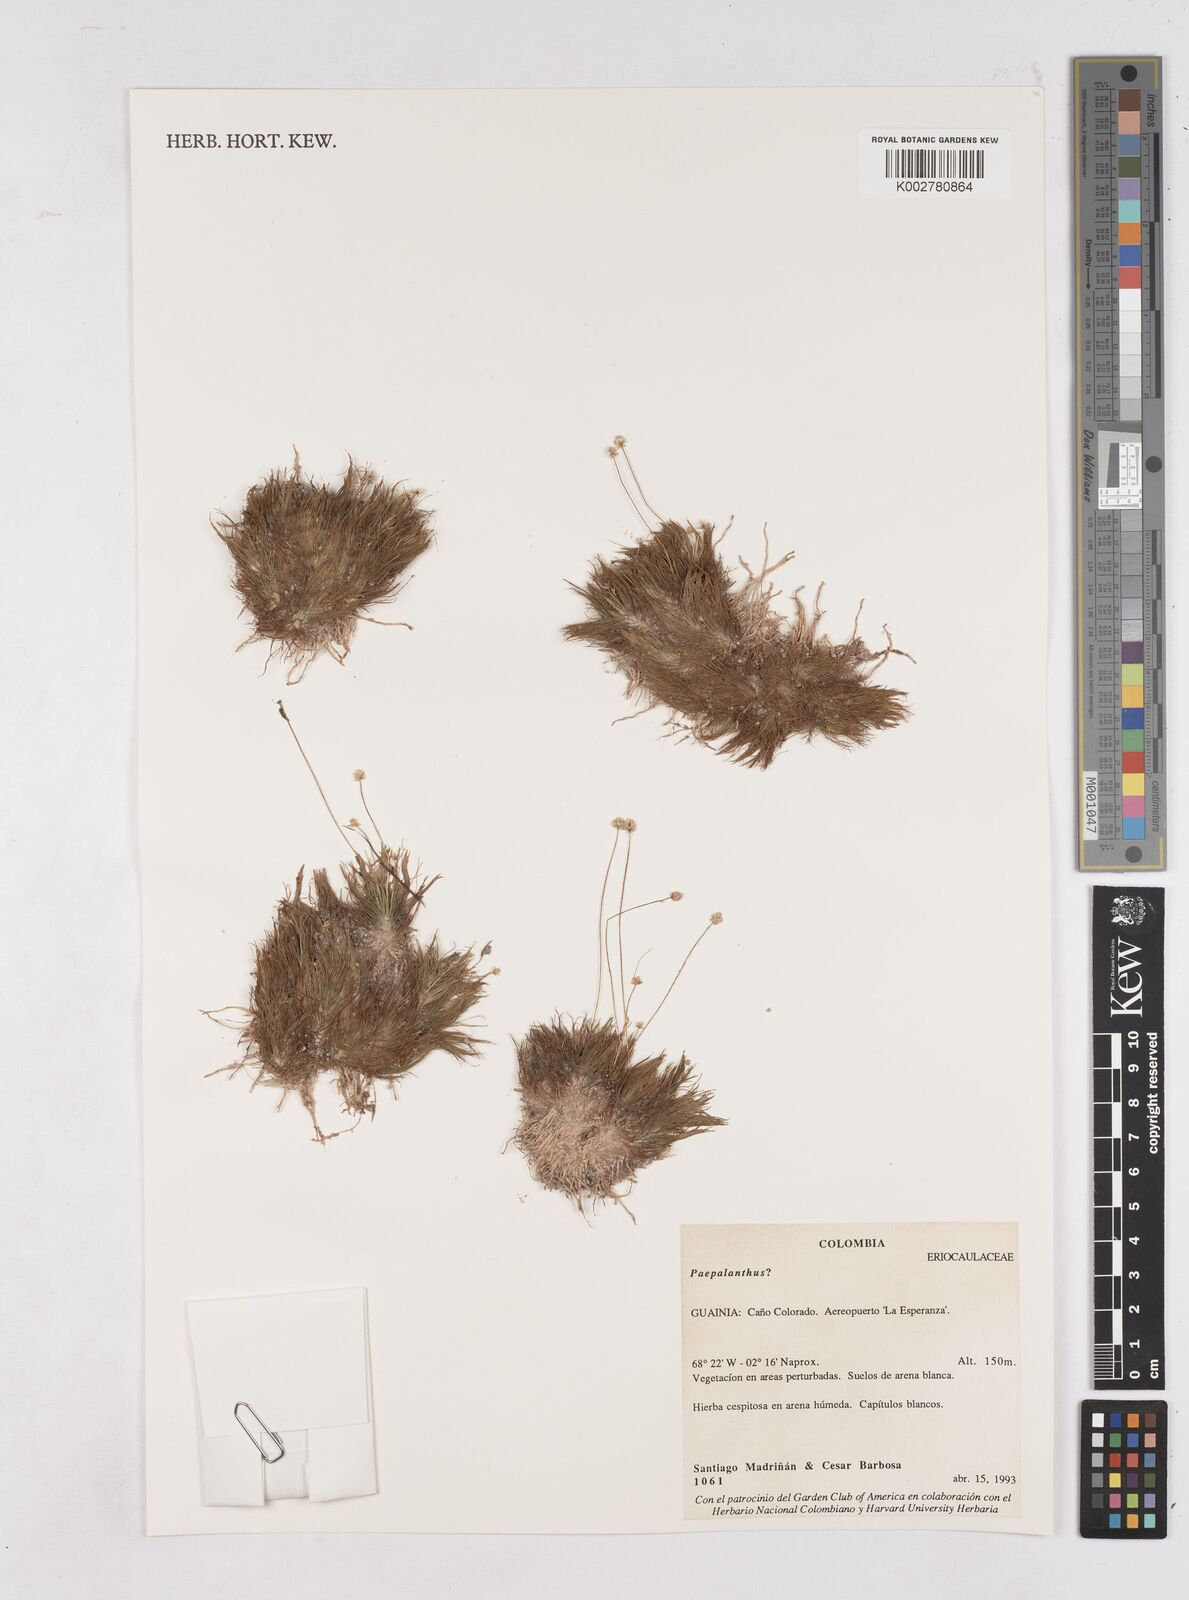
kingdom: Plantae
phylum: Tracheophyta
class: Liliopsida
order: Poales
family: Eriocaulaceae
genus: Paepalanthus
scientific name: Paepalanthus
